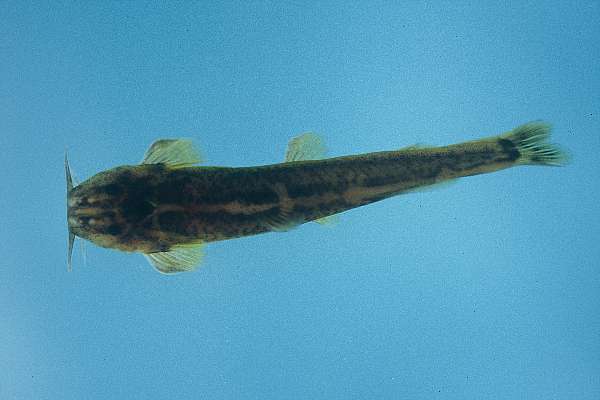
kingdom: Animalia
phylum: Chordata
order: Siluriformes
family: Schilbeidae
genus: Schilbe
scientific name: Schilbe intermedius
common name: Silver catfish
